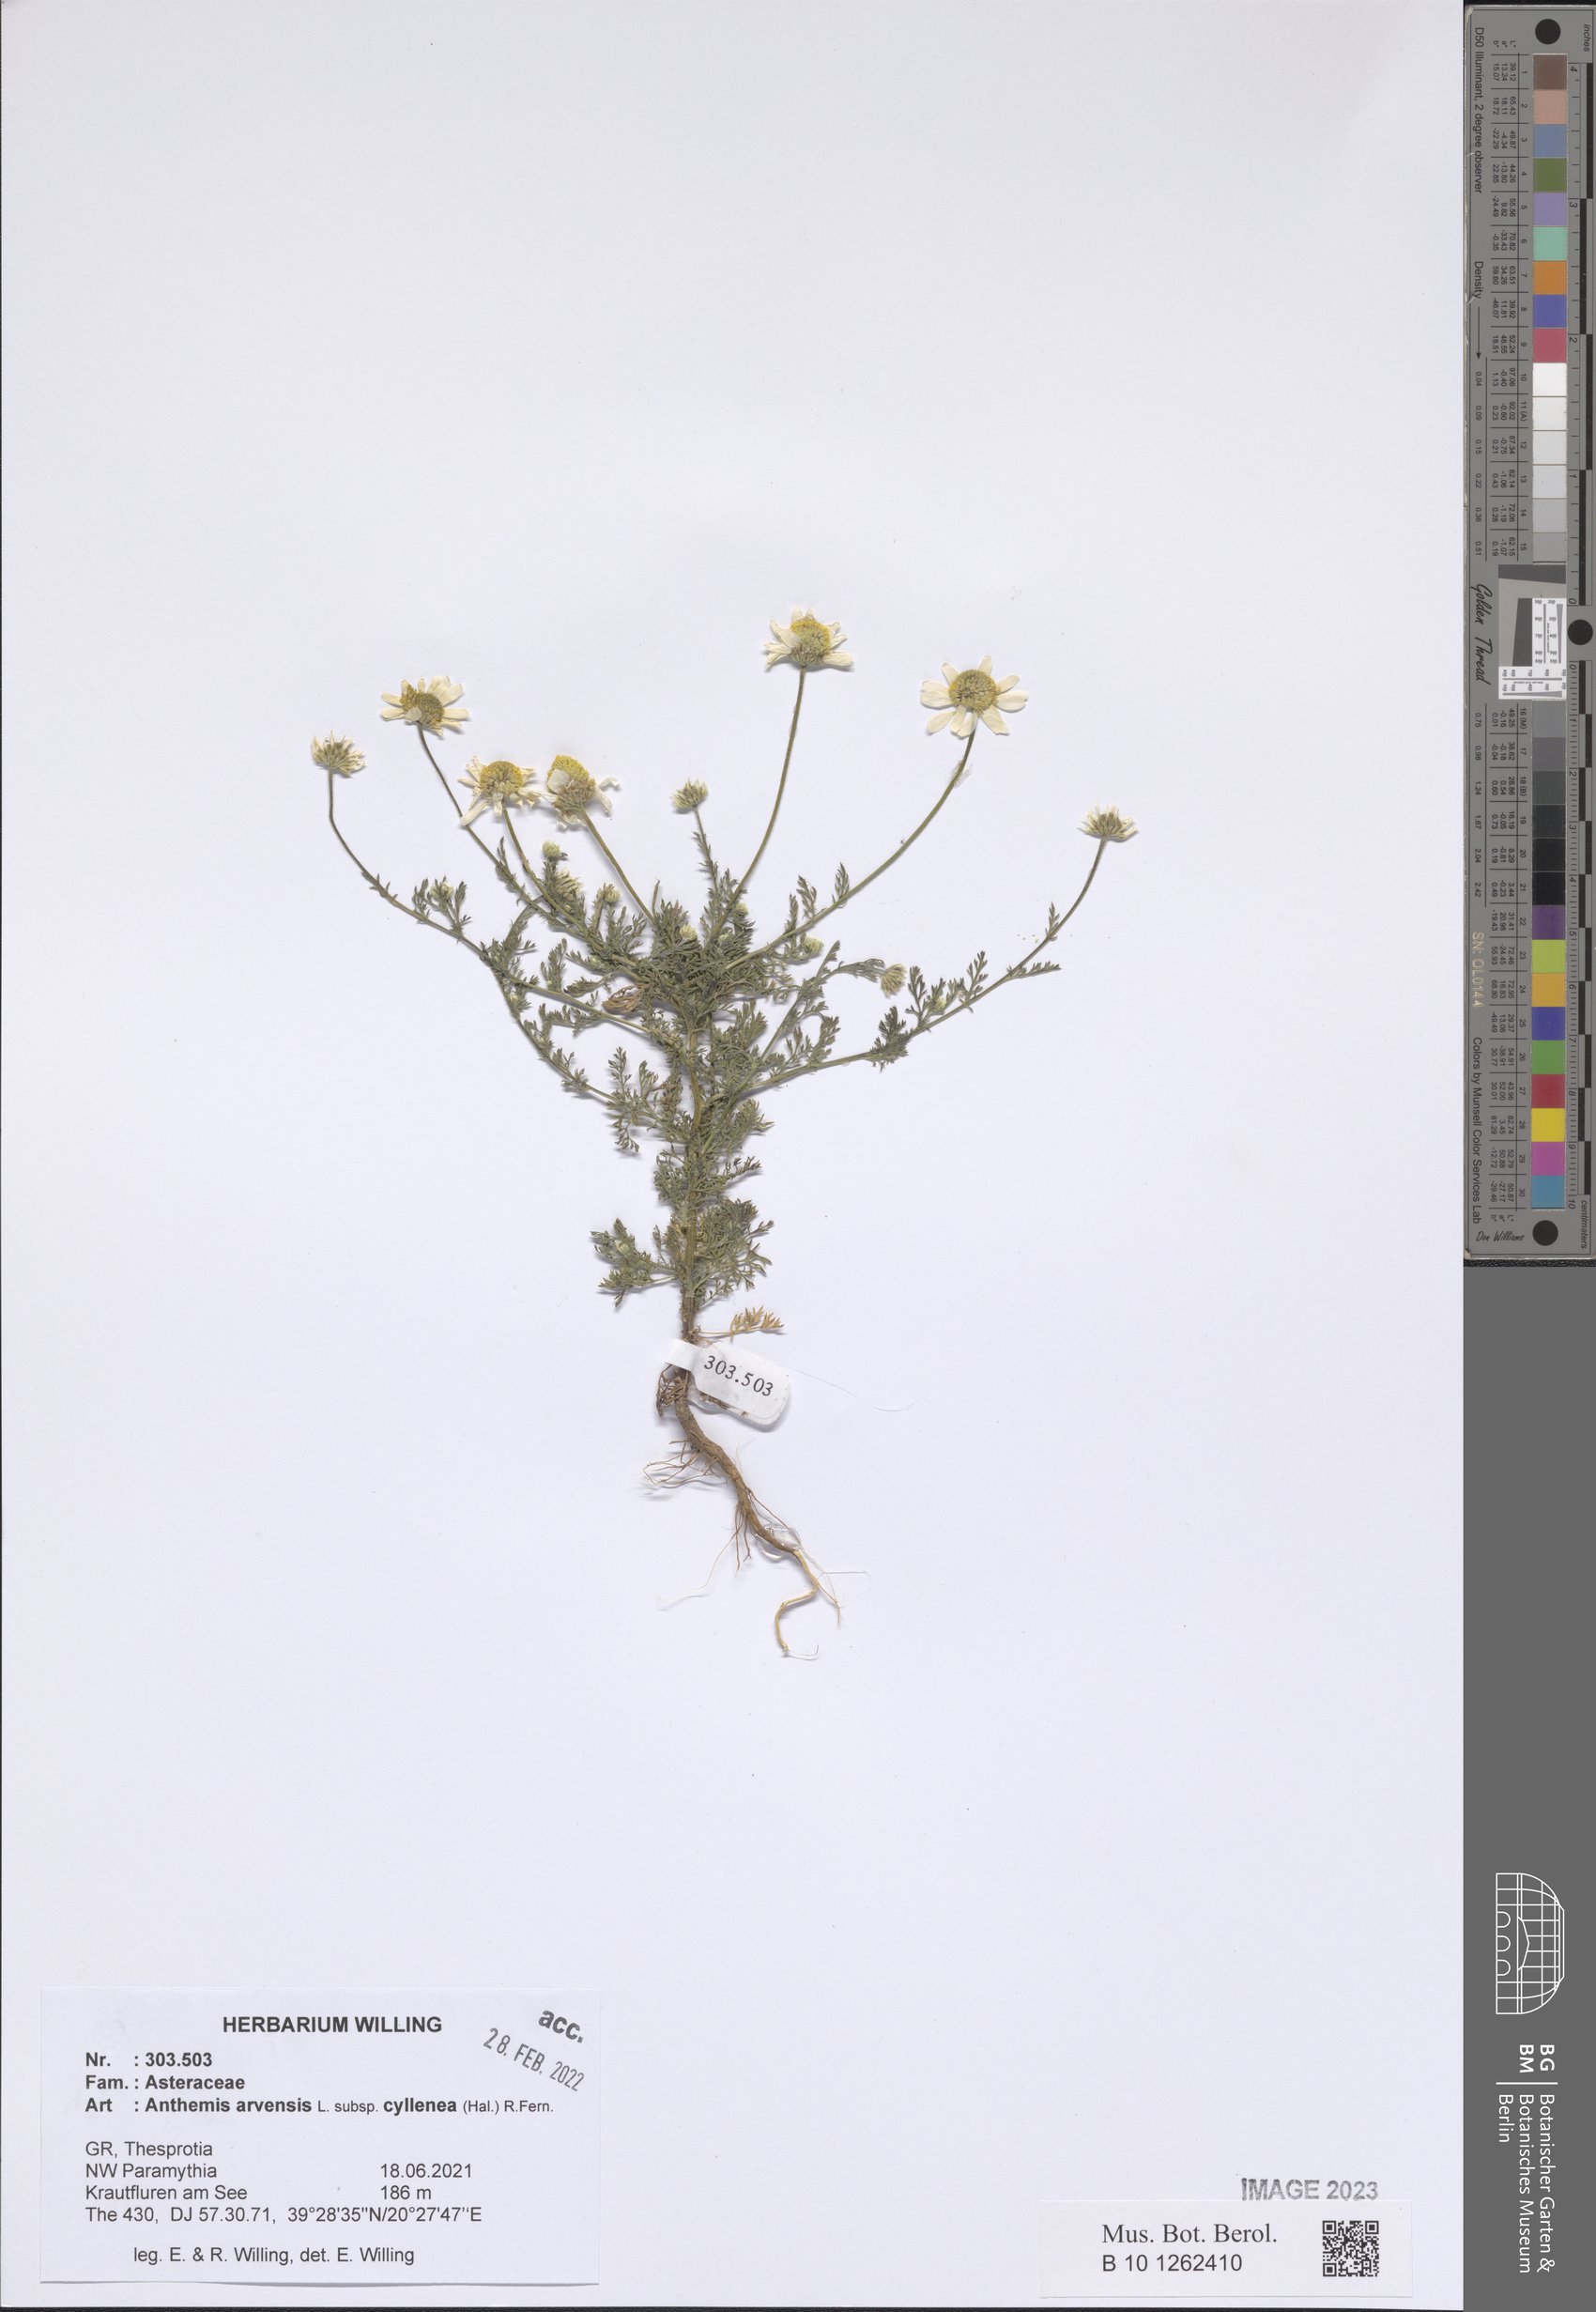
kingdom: Plantae
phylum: Tracheophyta
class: Magnoliopsida
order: Asterales
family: Asteraceae
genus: Anthemis
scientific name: Anthemis arvensis
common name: Corn chamomile
